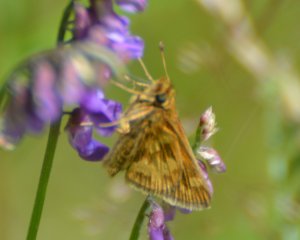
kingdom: Animalia
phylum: Arthropoda
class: Insecta
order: Lepidoptera
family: Hesperiidae
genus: Polites
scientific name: Polites coras
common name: Peck's Skipper
